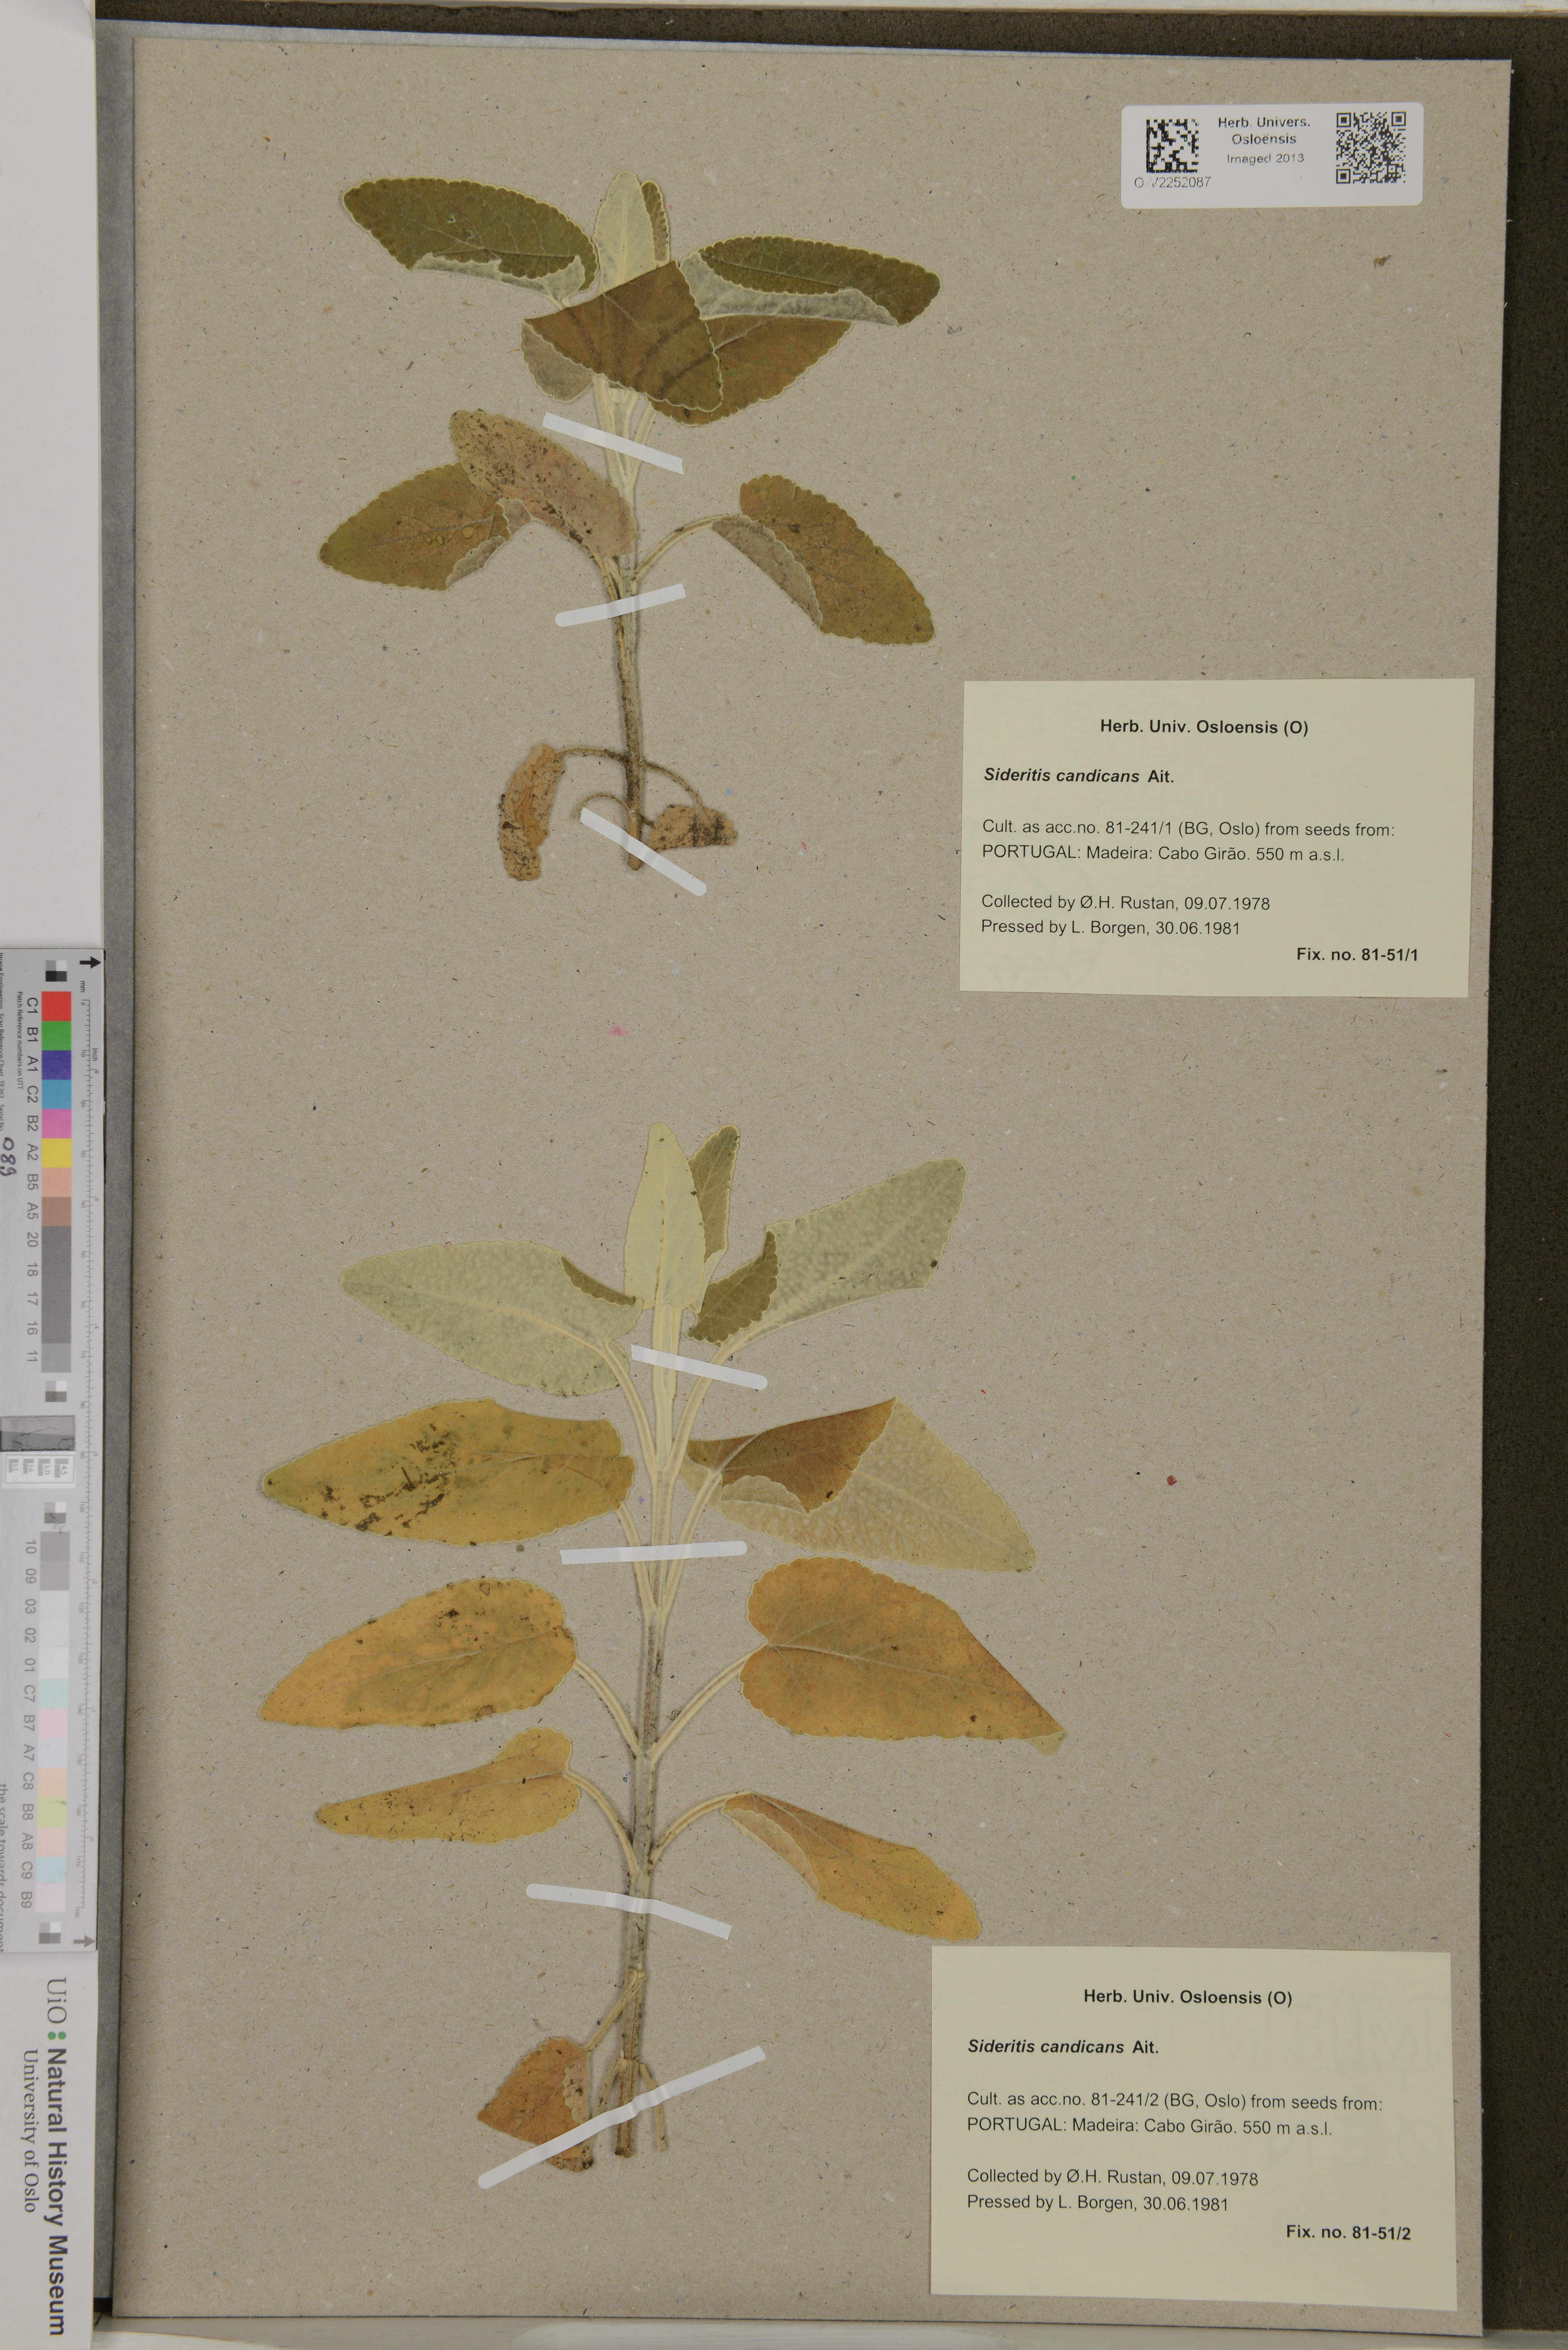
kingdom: Plantae
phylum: Tracheophyta
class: Magnoliopsida
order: Lamiales
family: Lamiaceae
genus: Sideritis
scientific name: Sideritis candicans
